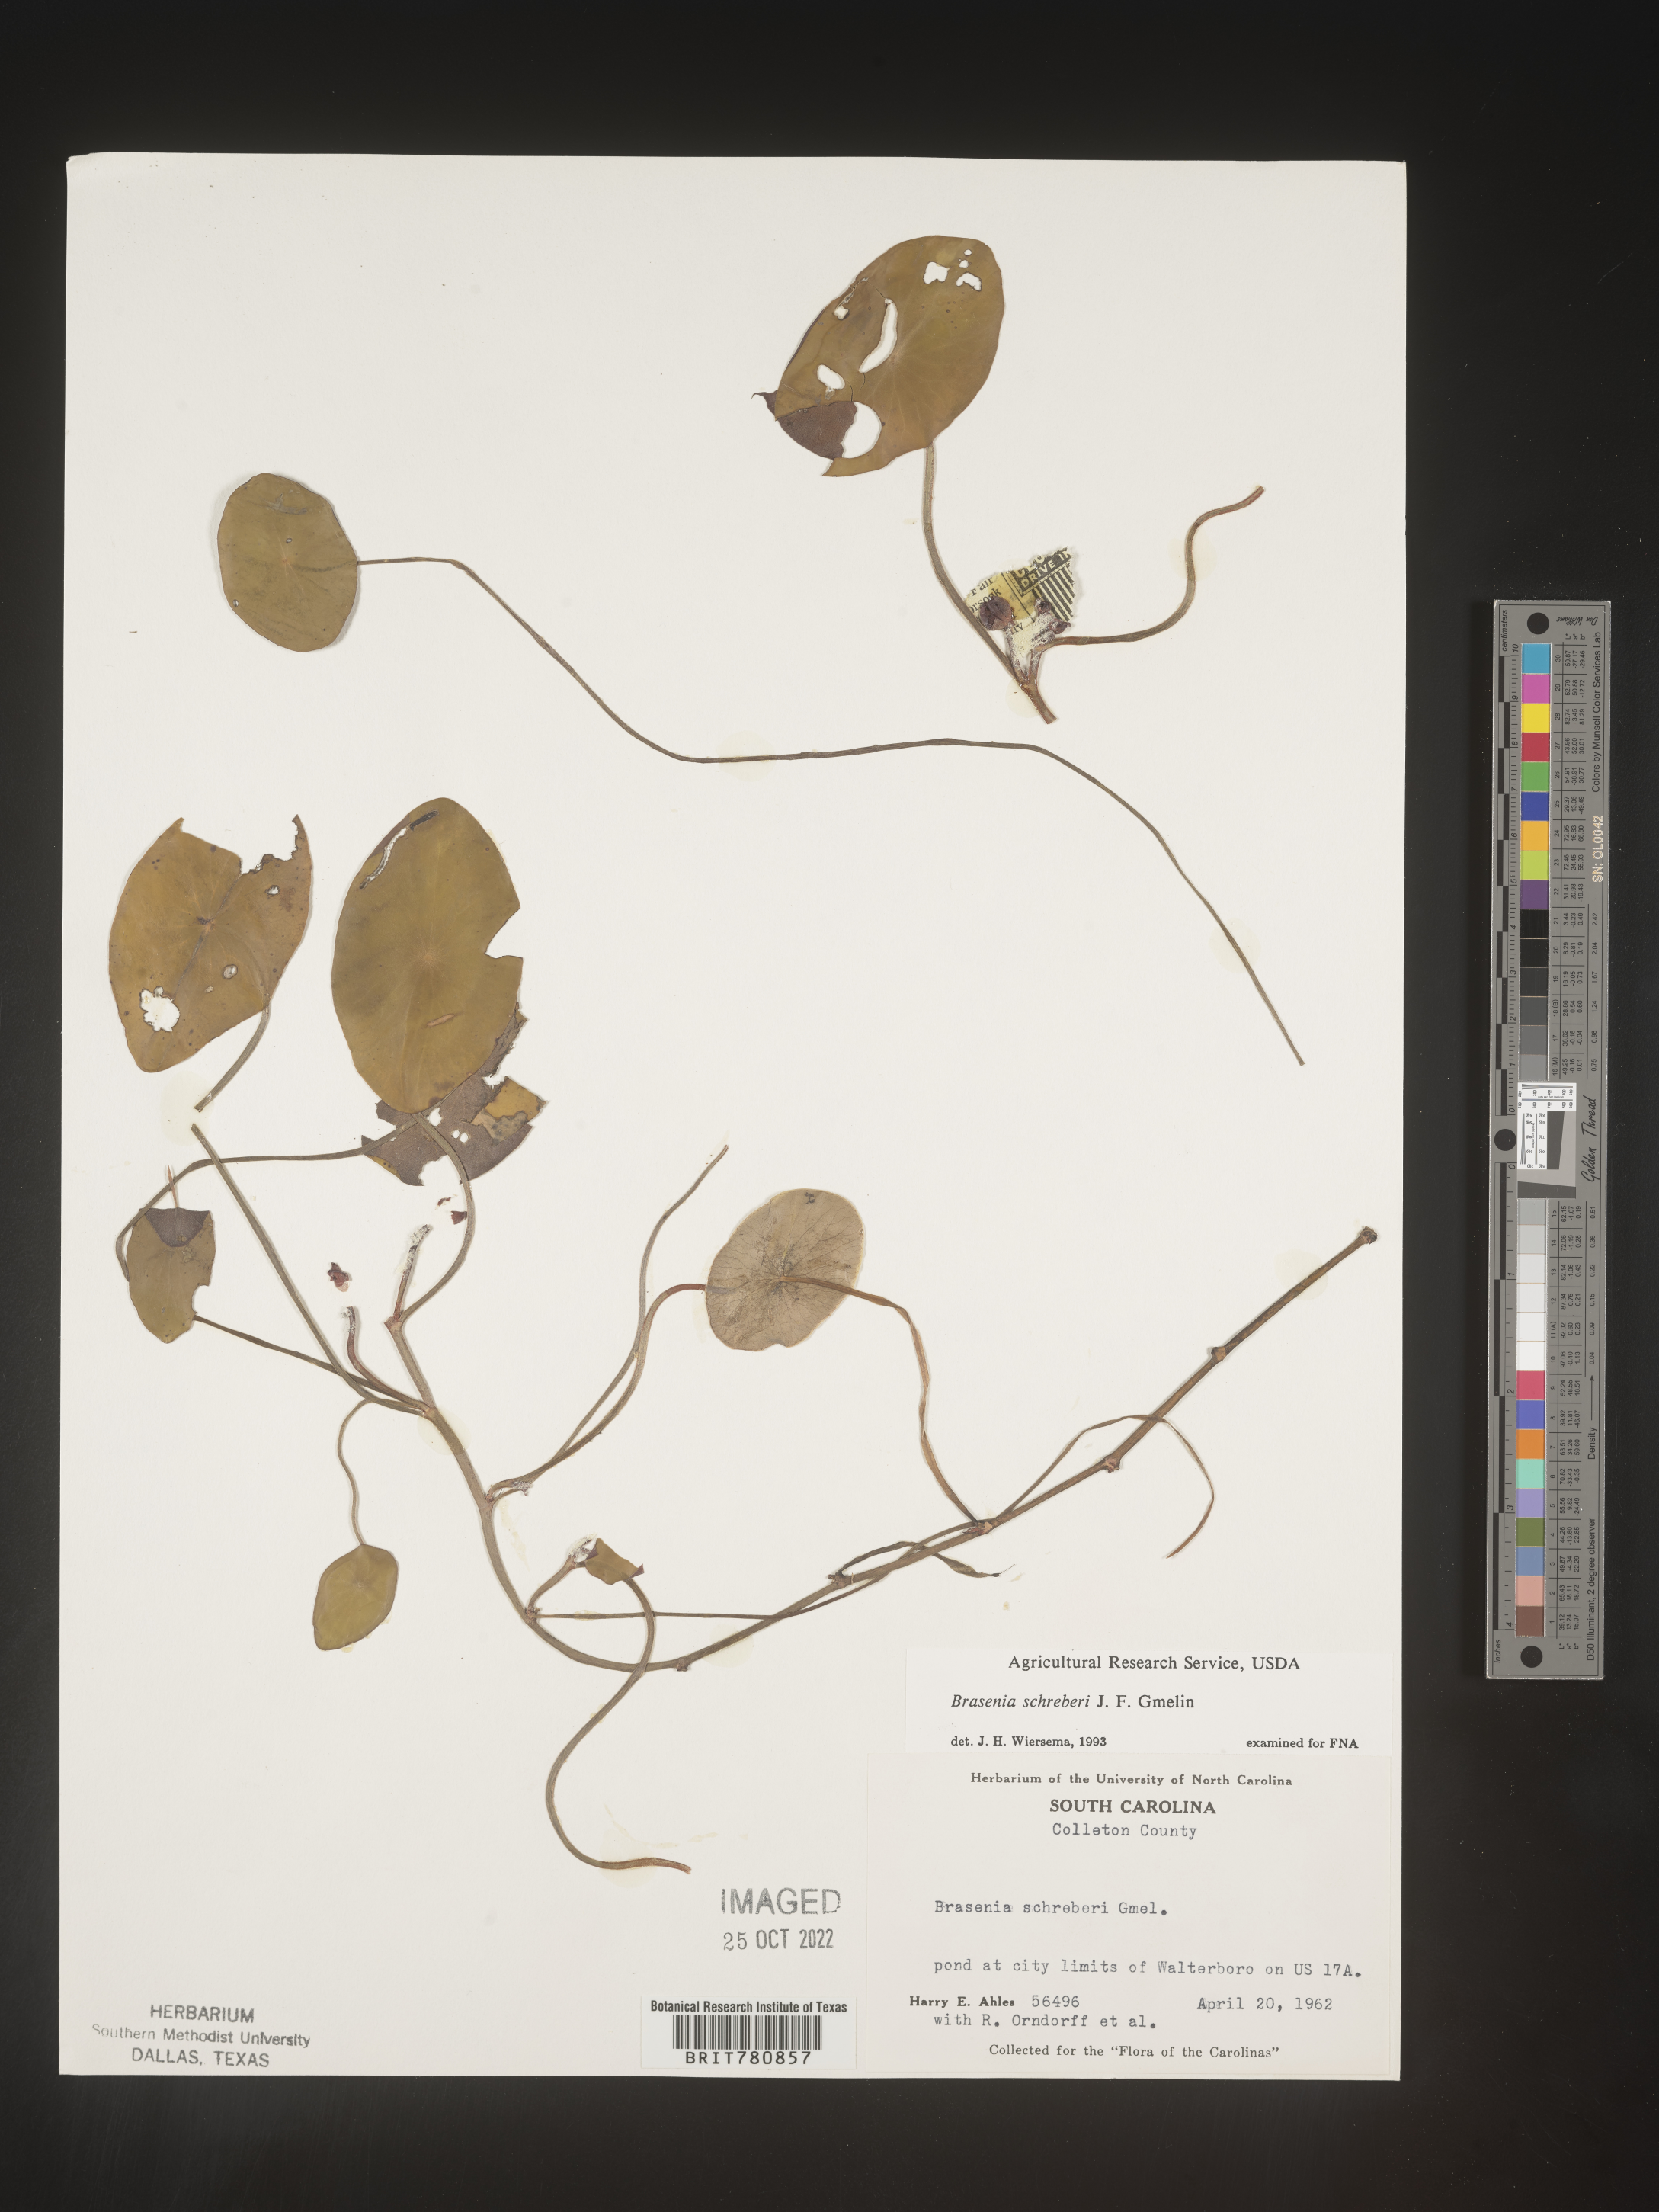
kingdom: Plantae
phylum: Tracheophyta
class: Magnoliopsida
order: Nymphaeales
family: Cabombaceae
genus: Brasenia
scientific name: Brasenia schreberi
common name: Water-shield
